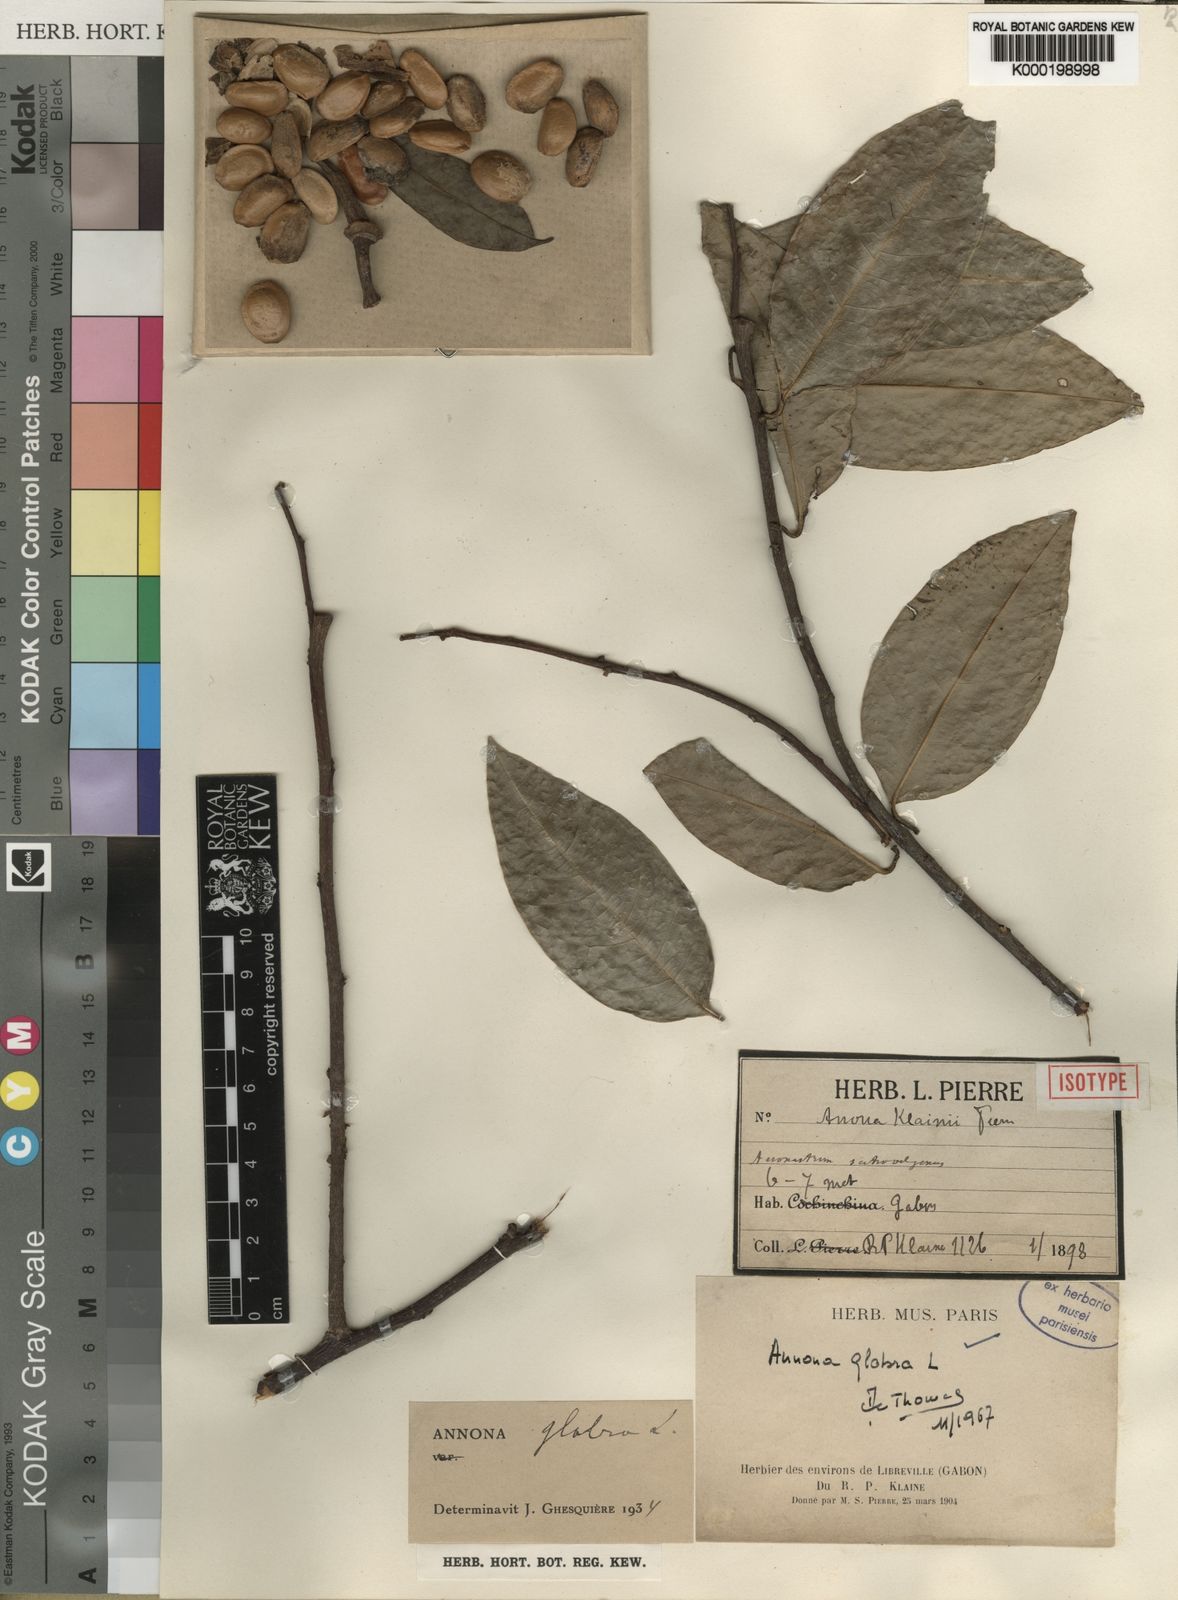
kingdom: Plantae
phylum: Tracheophyta
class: Magnoliopsida
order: Magnoliales
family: Annonaceae
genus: Annona
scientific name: Annona glabra
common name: Monkey apple
